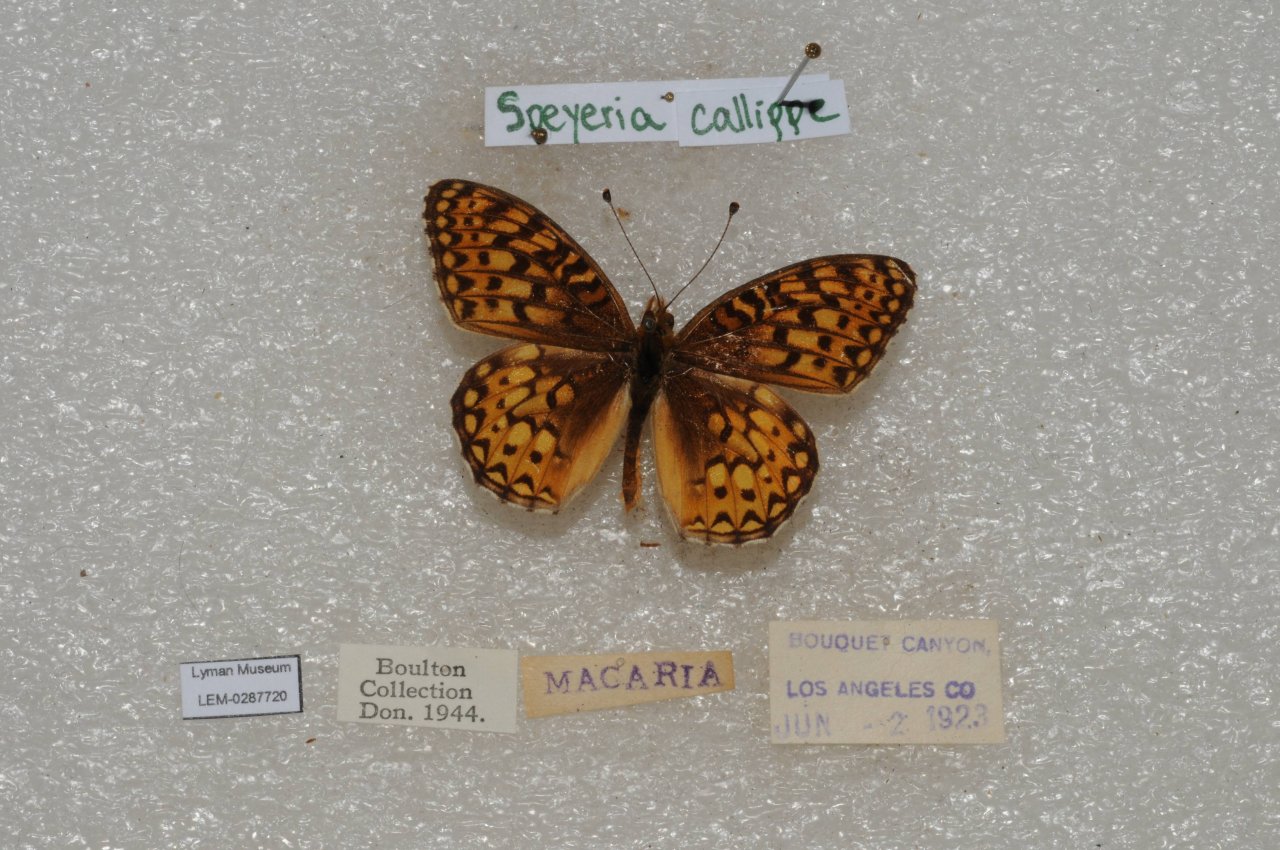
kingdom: Animalia
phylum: Arthropoda
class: Insecta
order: Lepidoptera
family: Nymphalidae
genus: Speyeria
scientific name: Speyeria callippe
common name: Callippe Fritillary
